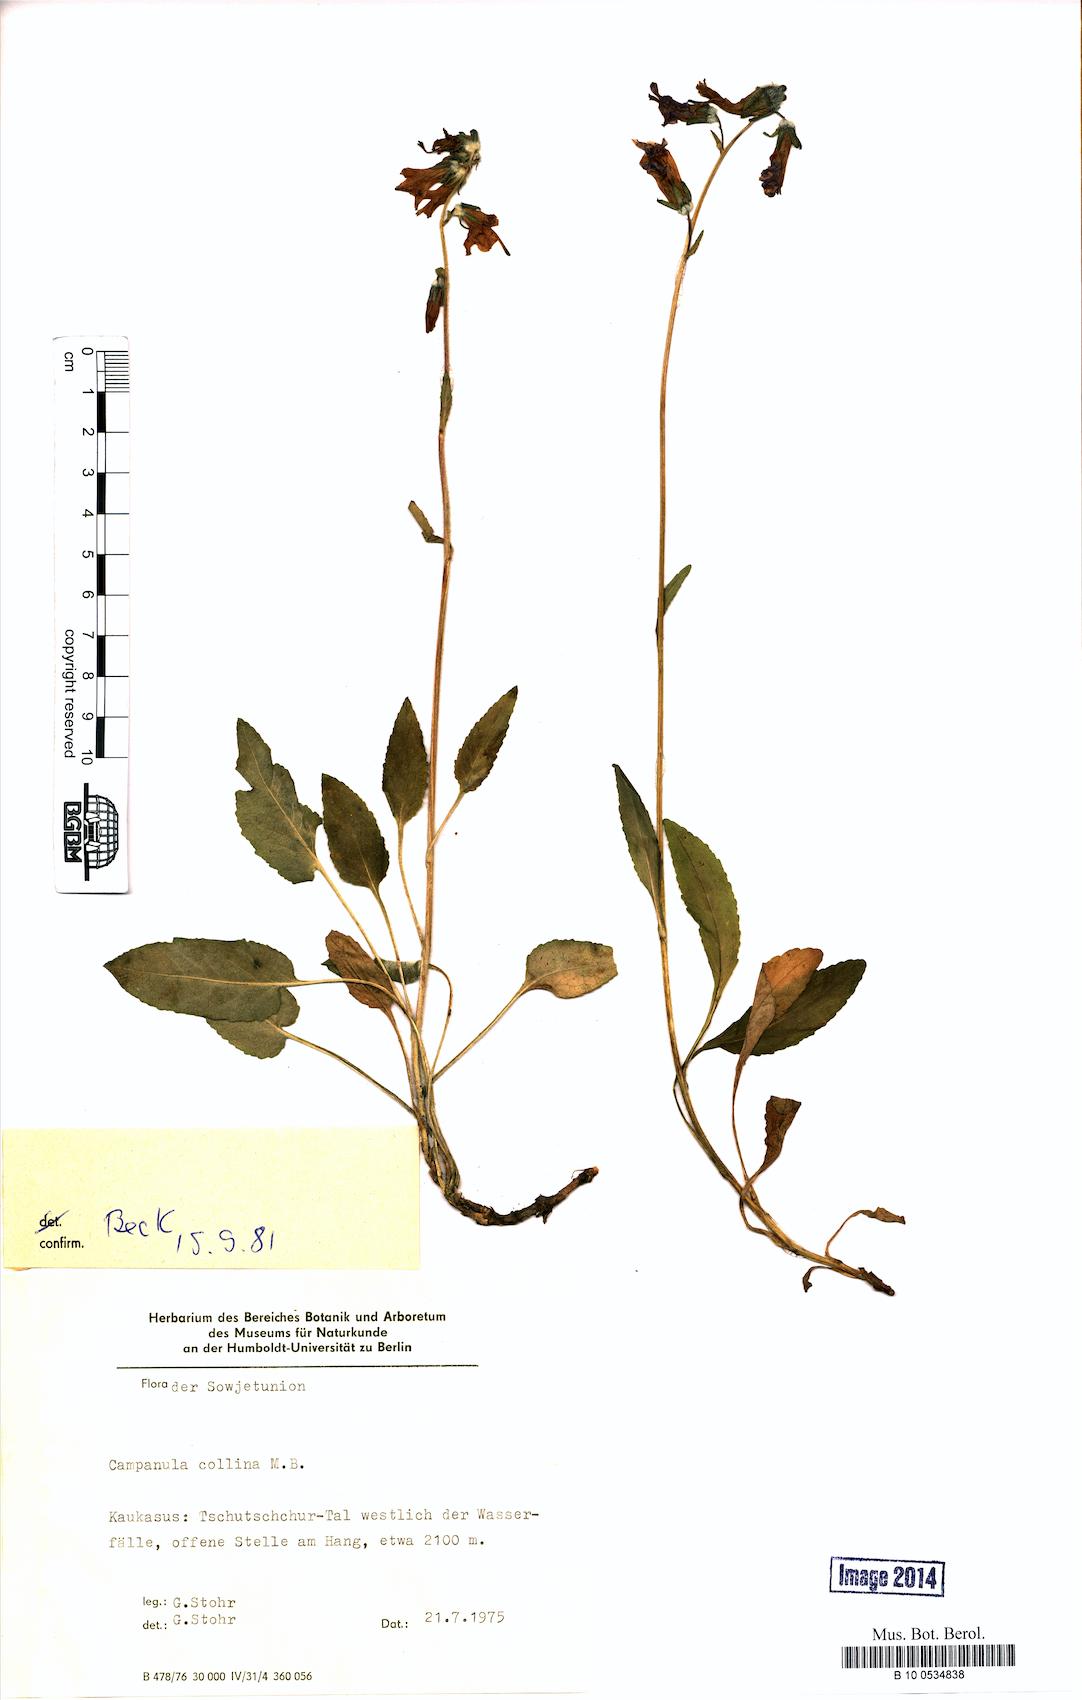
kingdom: Plantae
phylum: Tracheophyta
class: Magnoliopsida
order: Asterales
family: Campanulaceae
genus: Campanula
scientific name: Campanula collina
